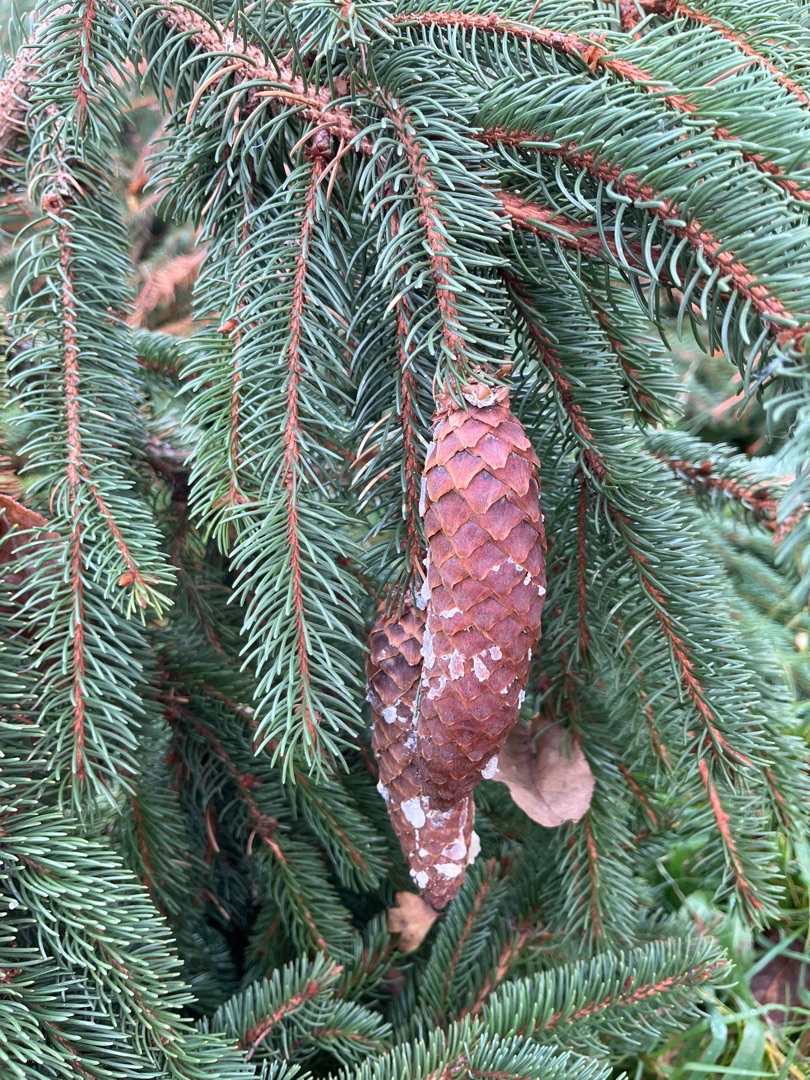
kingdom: Plantae
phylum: Tracheophyta
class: Pinopsida
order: Pinales
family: Pinaceae
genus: Picea
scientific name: Picea abies
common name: Rød-gran
